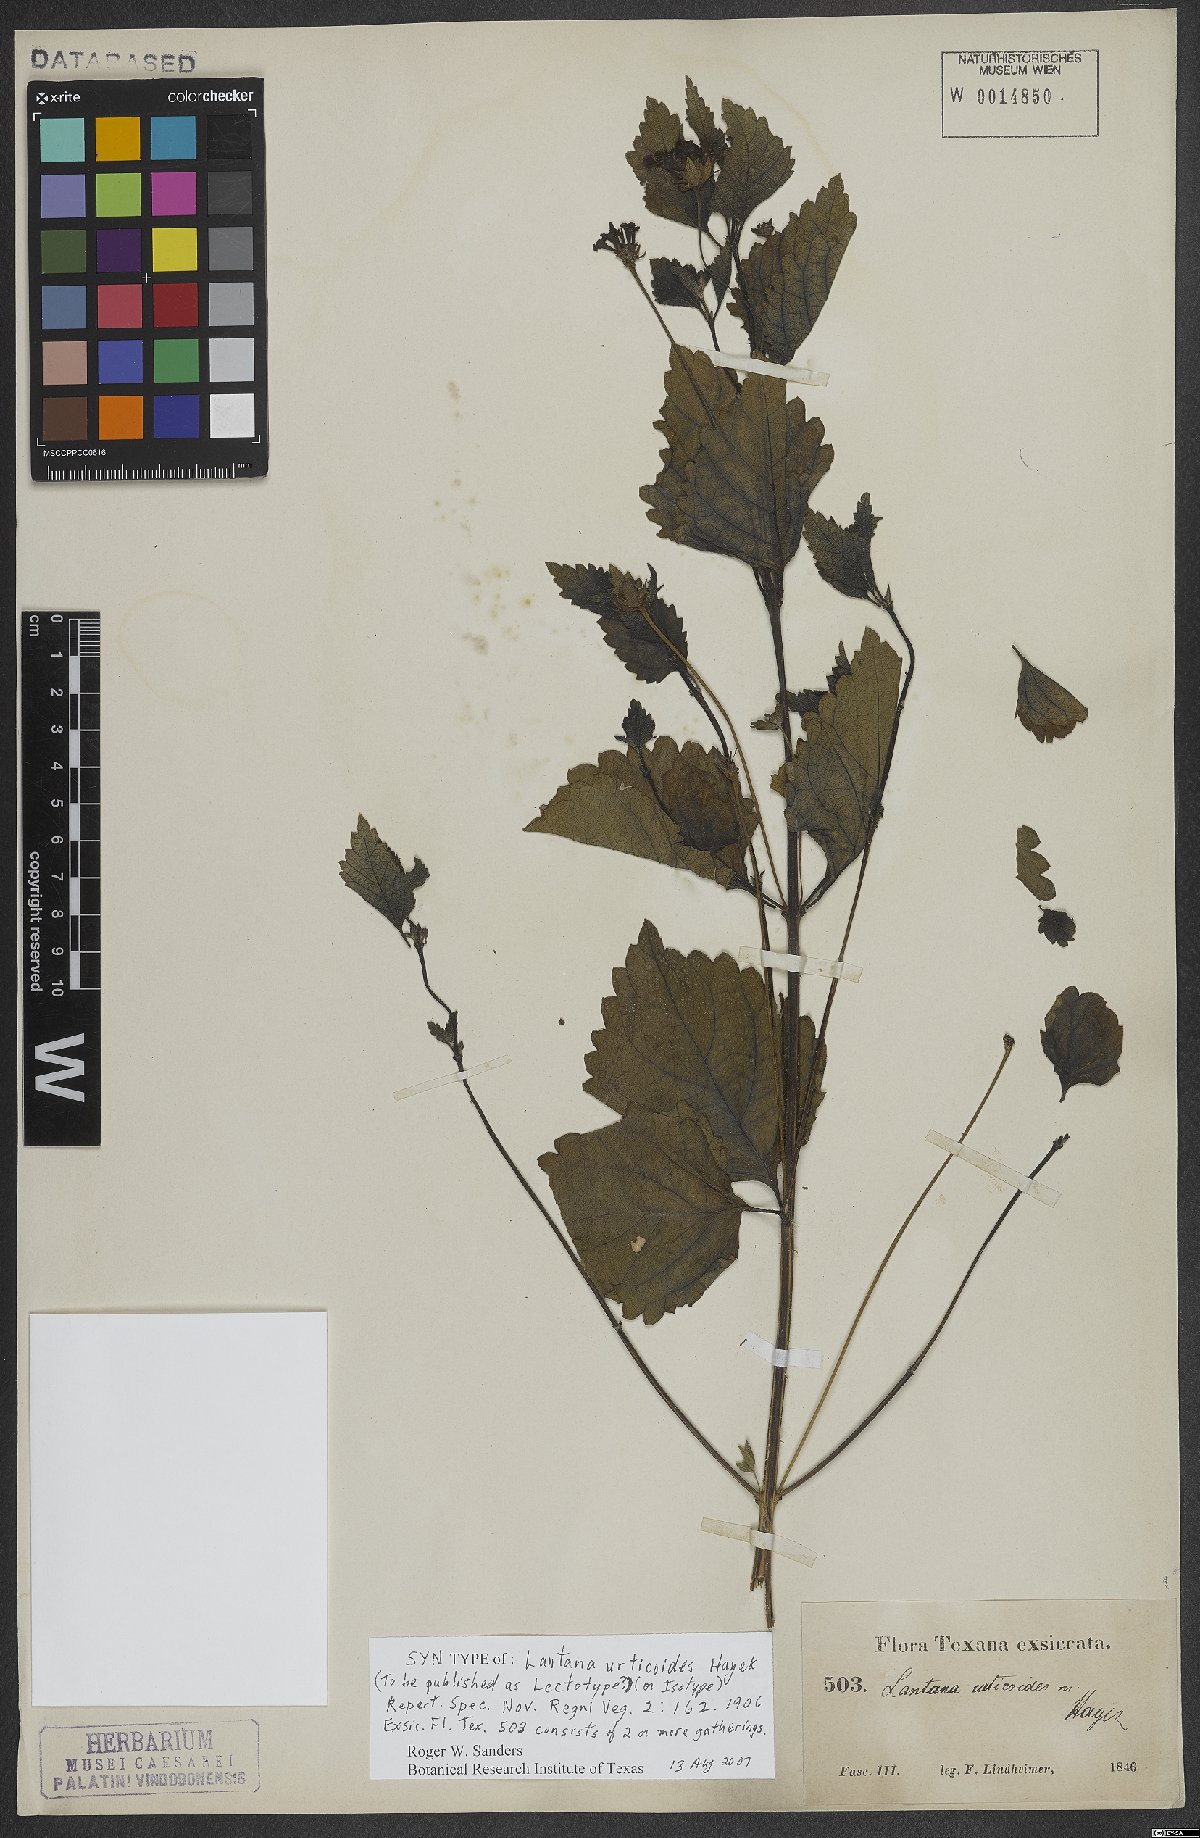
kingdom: Plantae
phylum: Tracheophyta
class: Magnoliopsida
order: Lamiales
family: Verbenaceae
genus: Lantana
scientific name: Lantana urticoides
